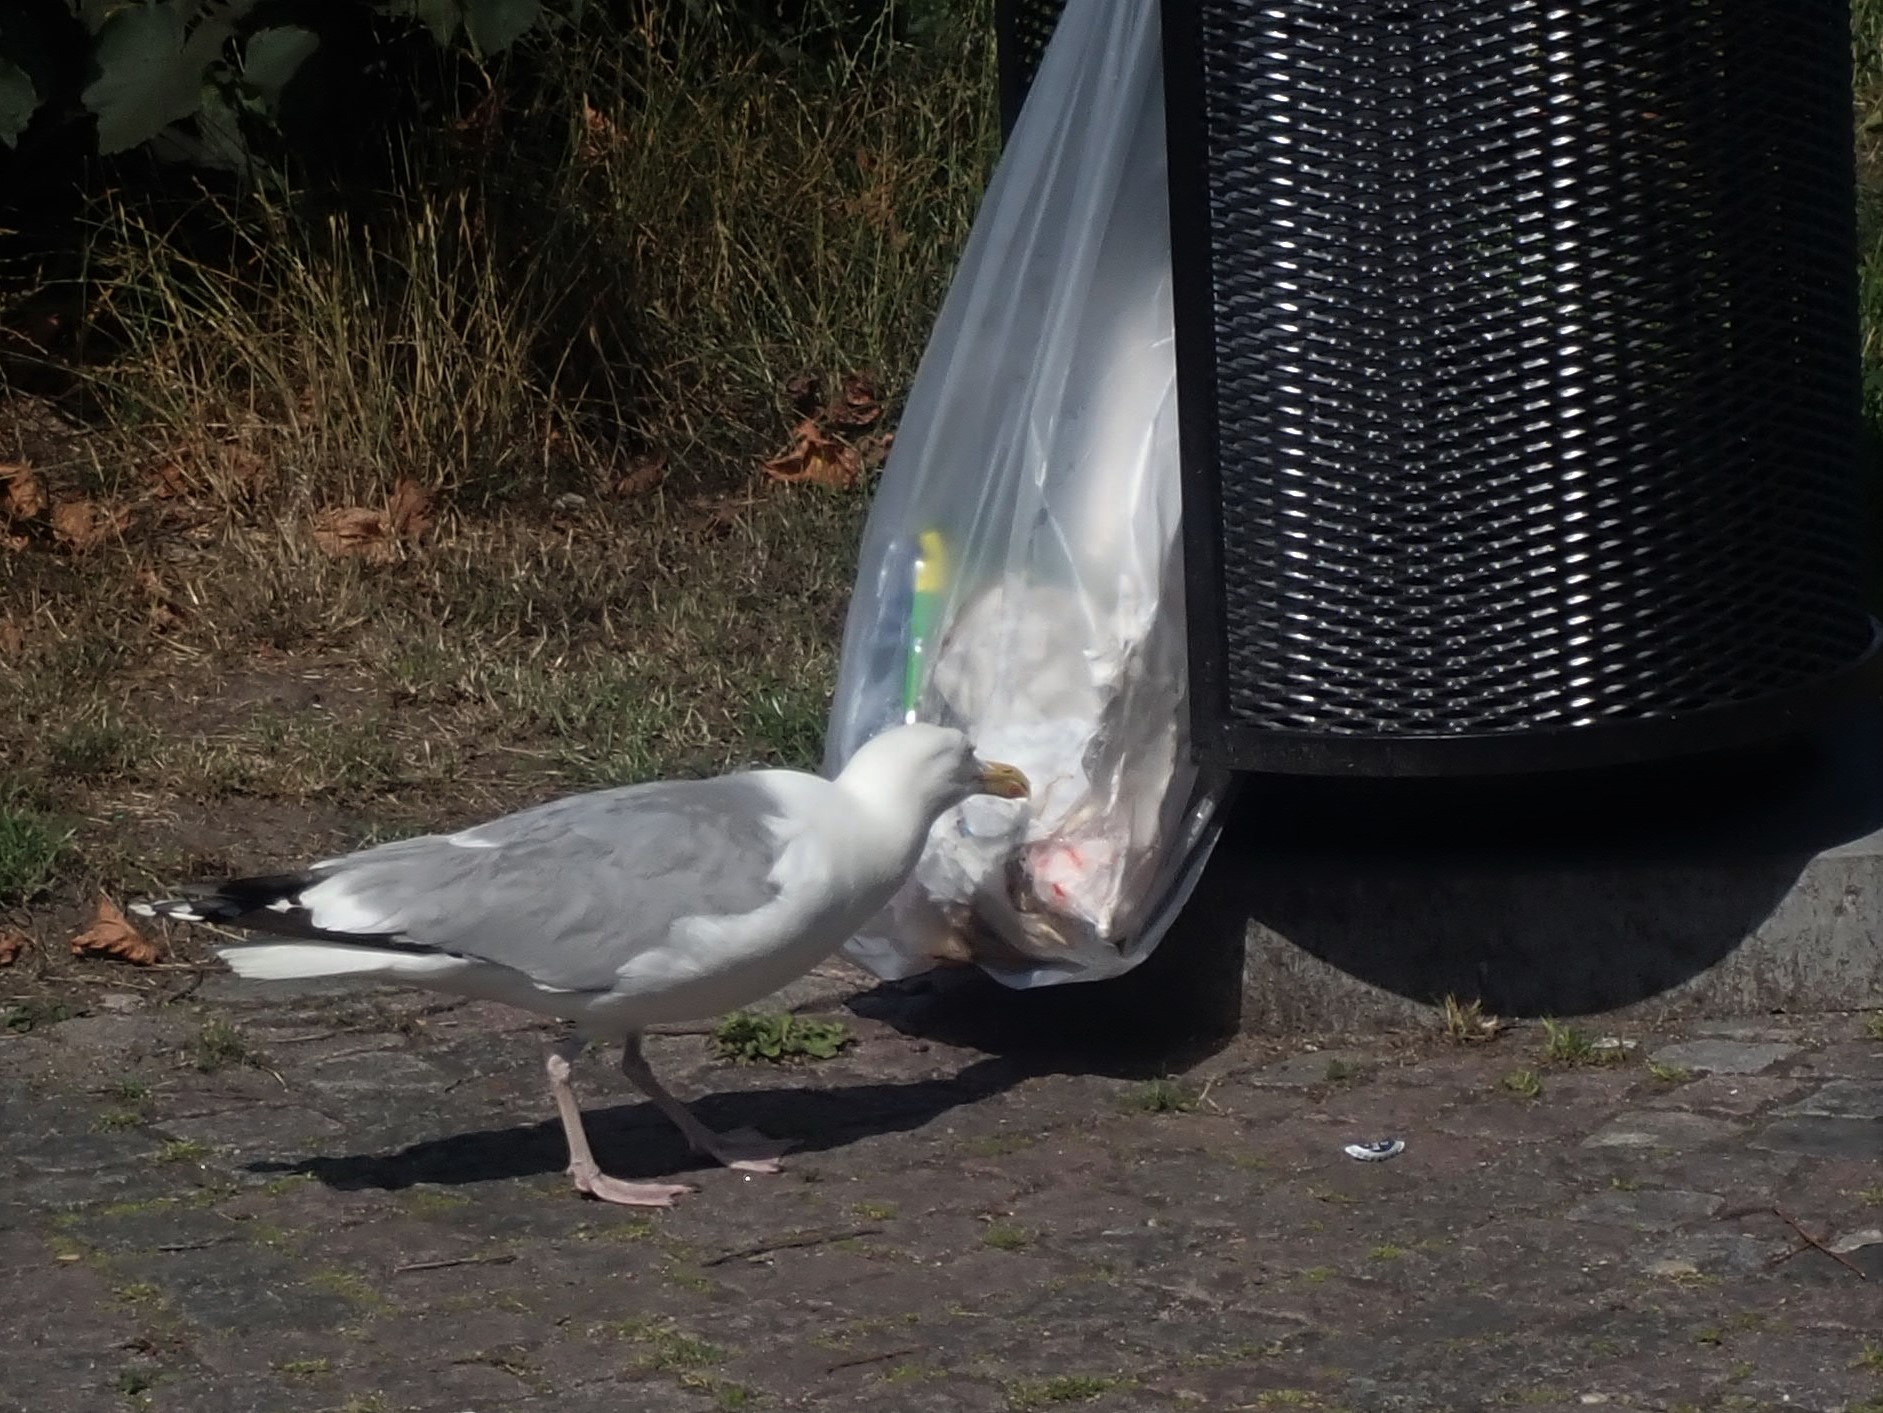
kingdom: Animalia
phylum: Chordata
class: Aves
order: Charadriiformes
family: Laridae
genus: Larus
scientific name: Larus argentatus
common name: Sølvmåge
